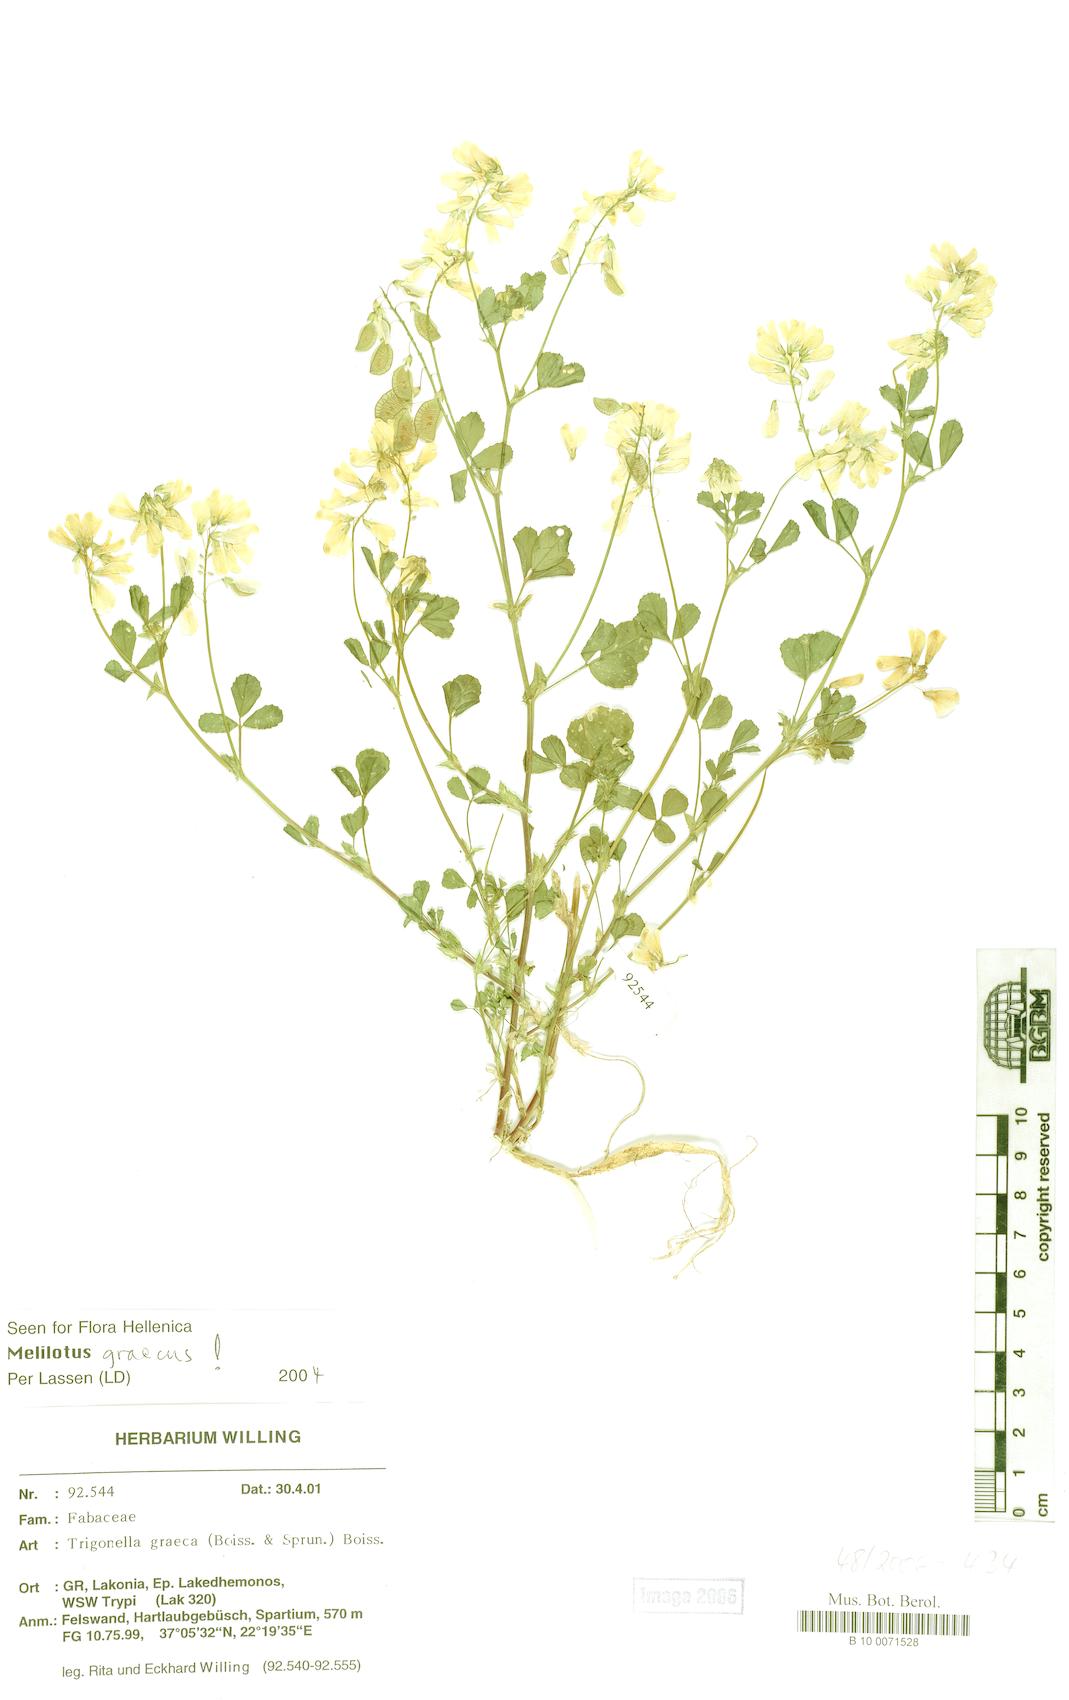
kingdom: Plantae
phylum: Tracheophyta
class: Magnoliopsida
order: Fabales
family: Fabaceae
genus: Trigonella
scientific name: Trigonella graeca
